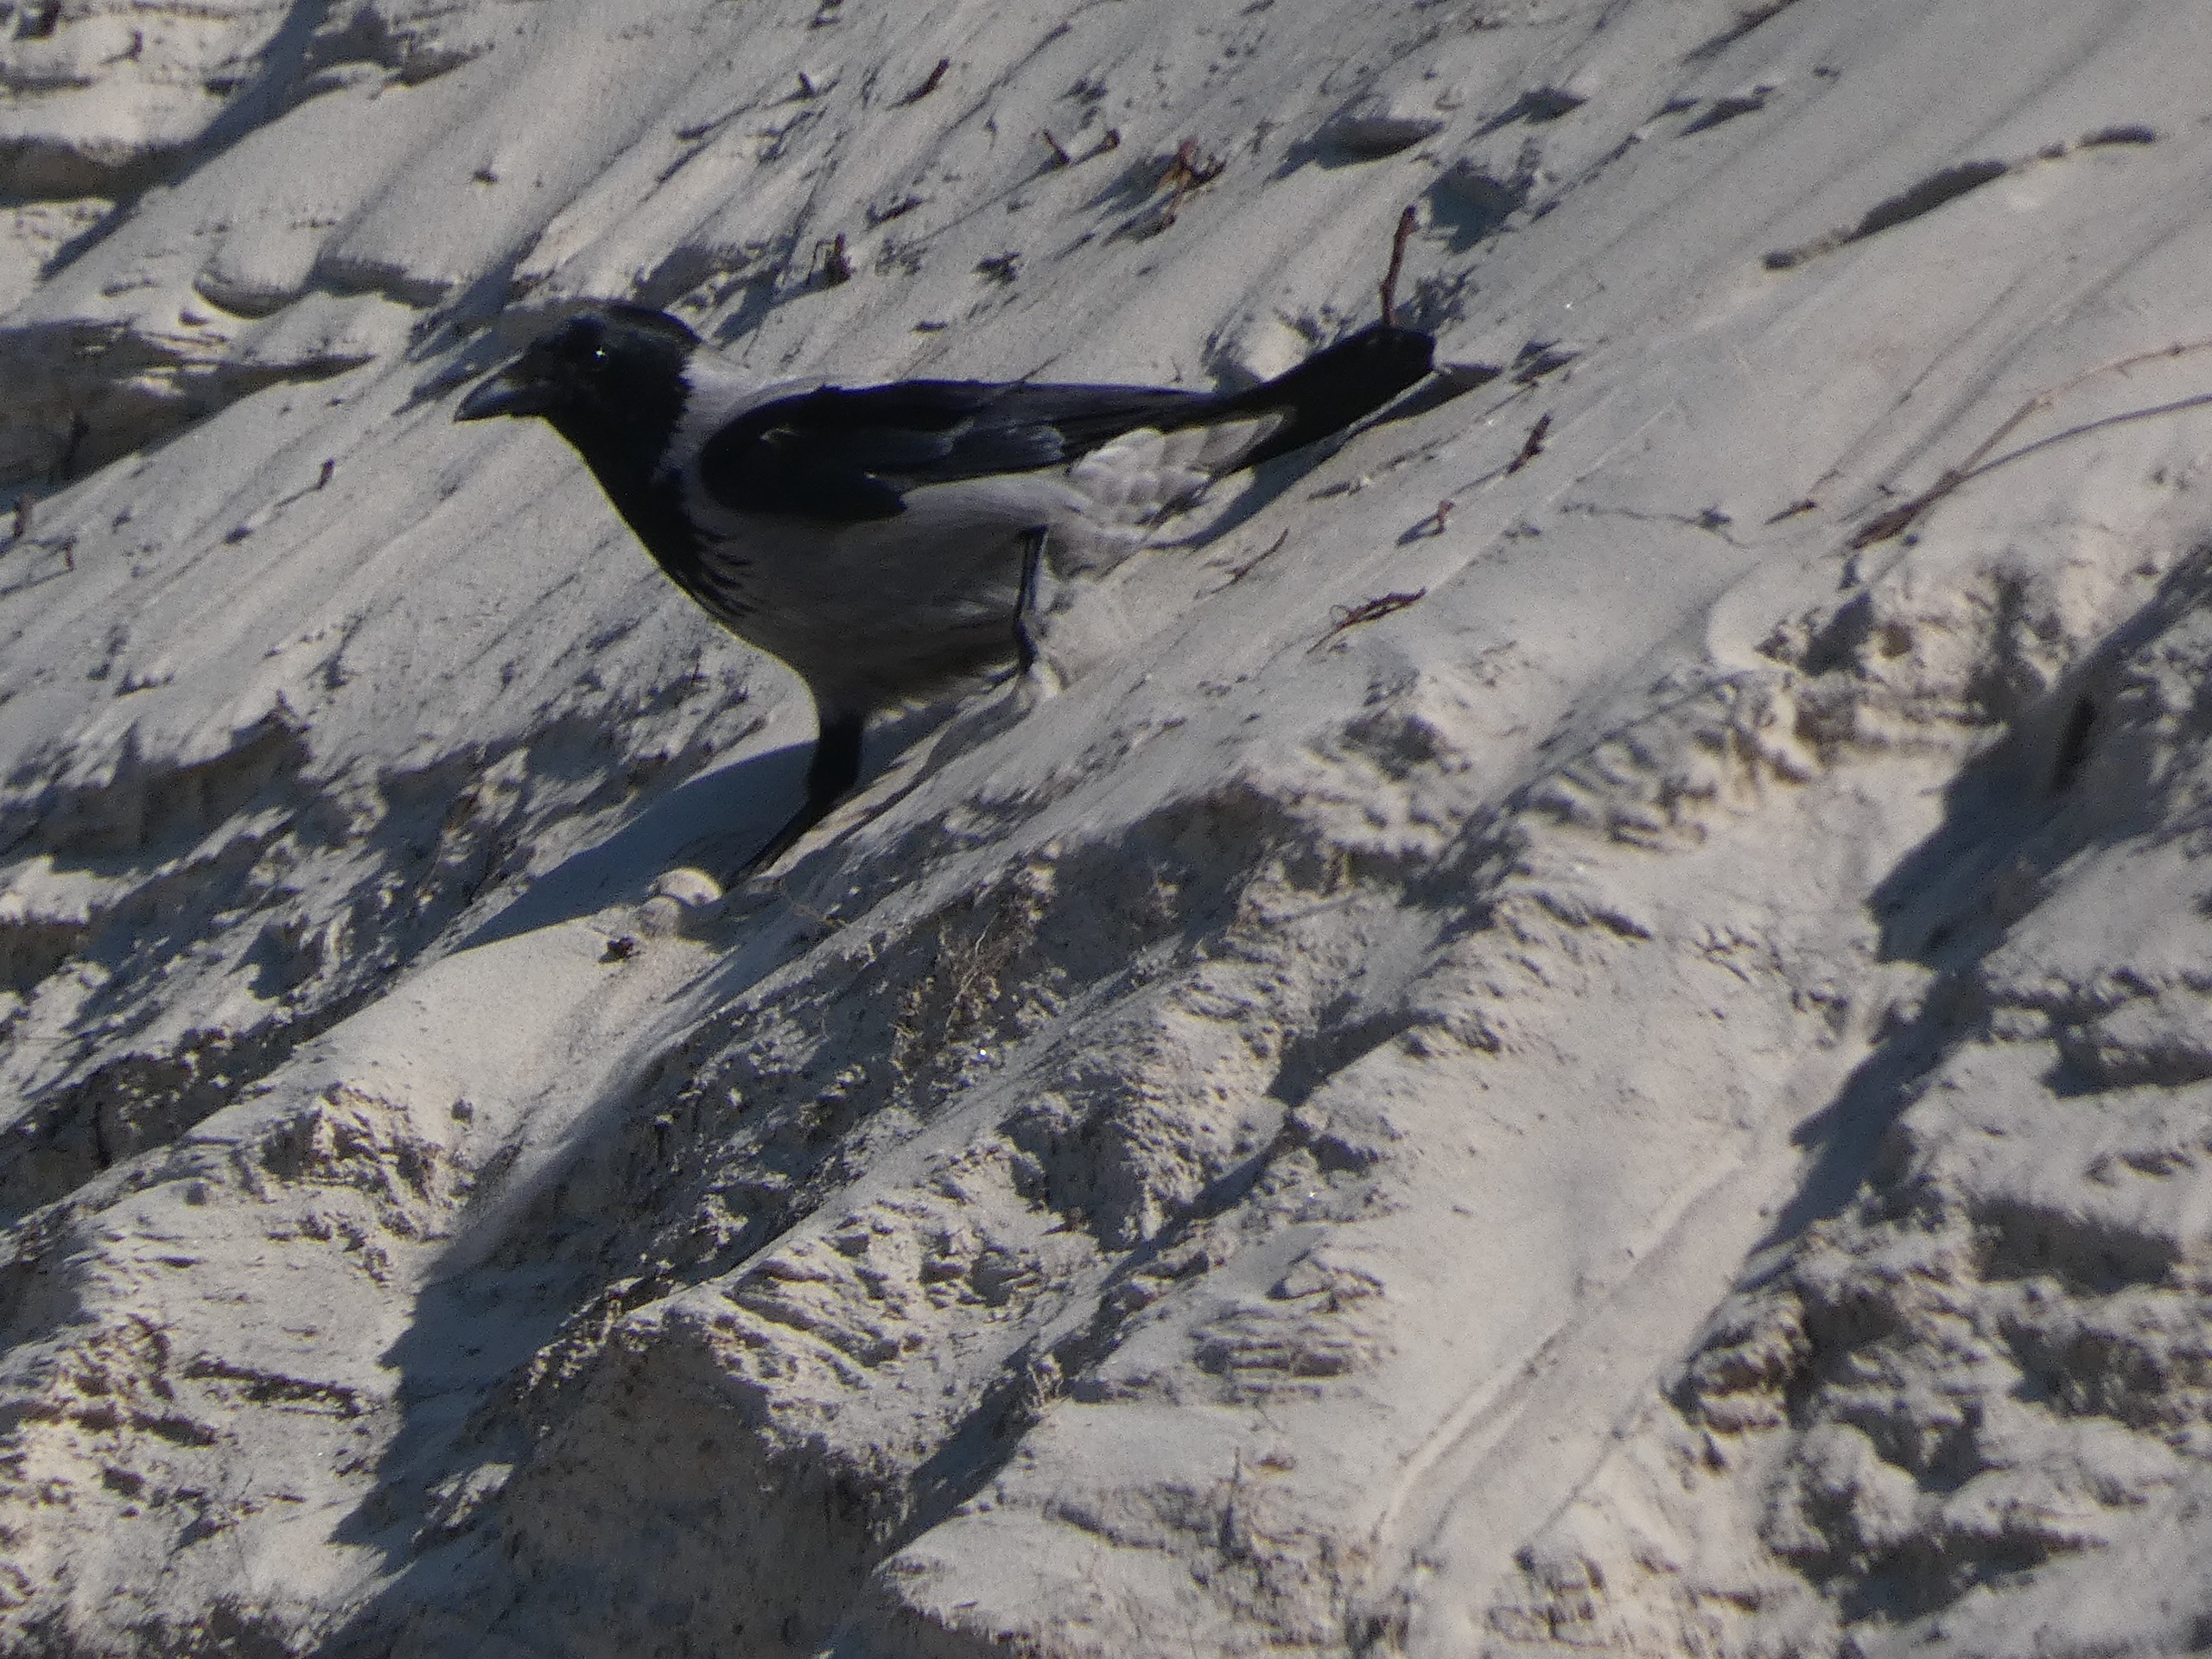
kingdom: Animalia
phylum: Chordata
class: Aves
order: Passeriformes
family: Corvidae
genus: Corvus
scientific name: Corvus cornix
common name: Gråkrage
